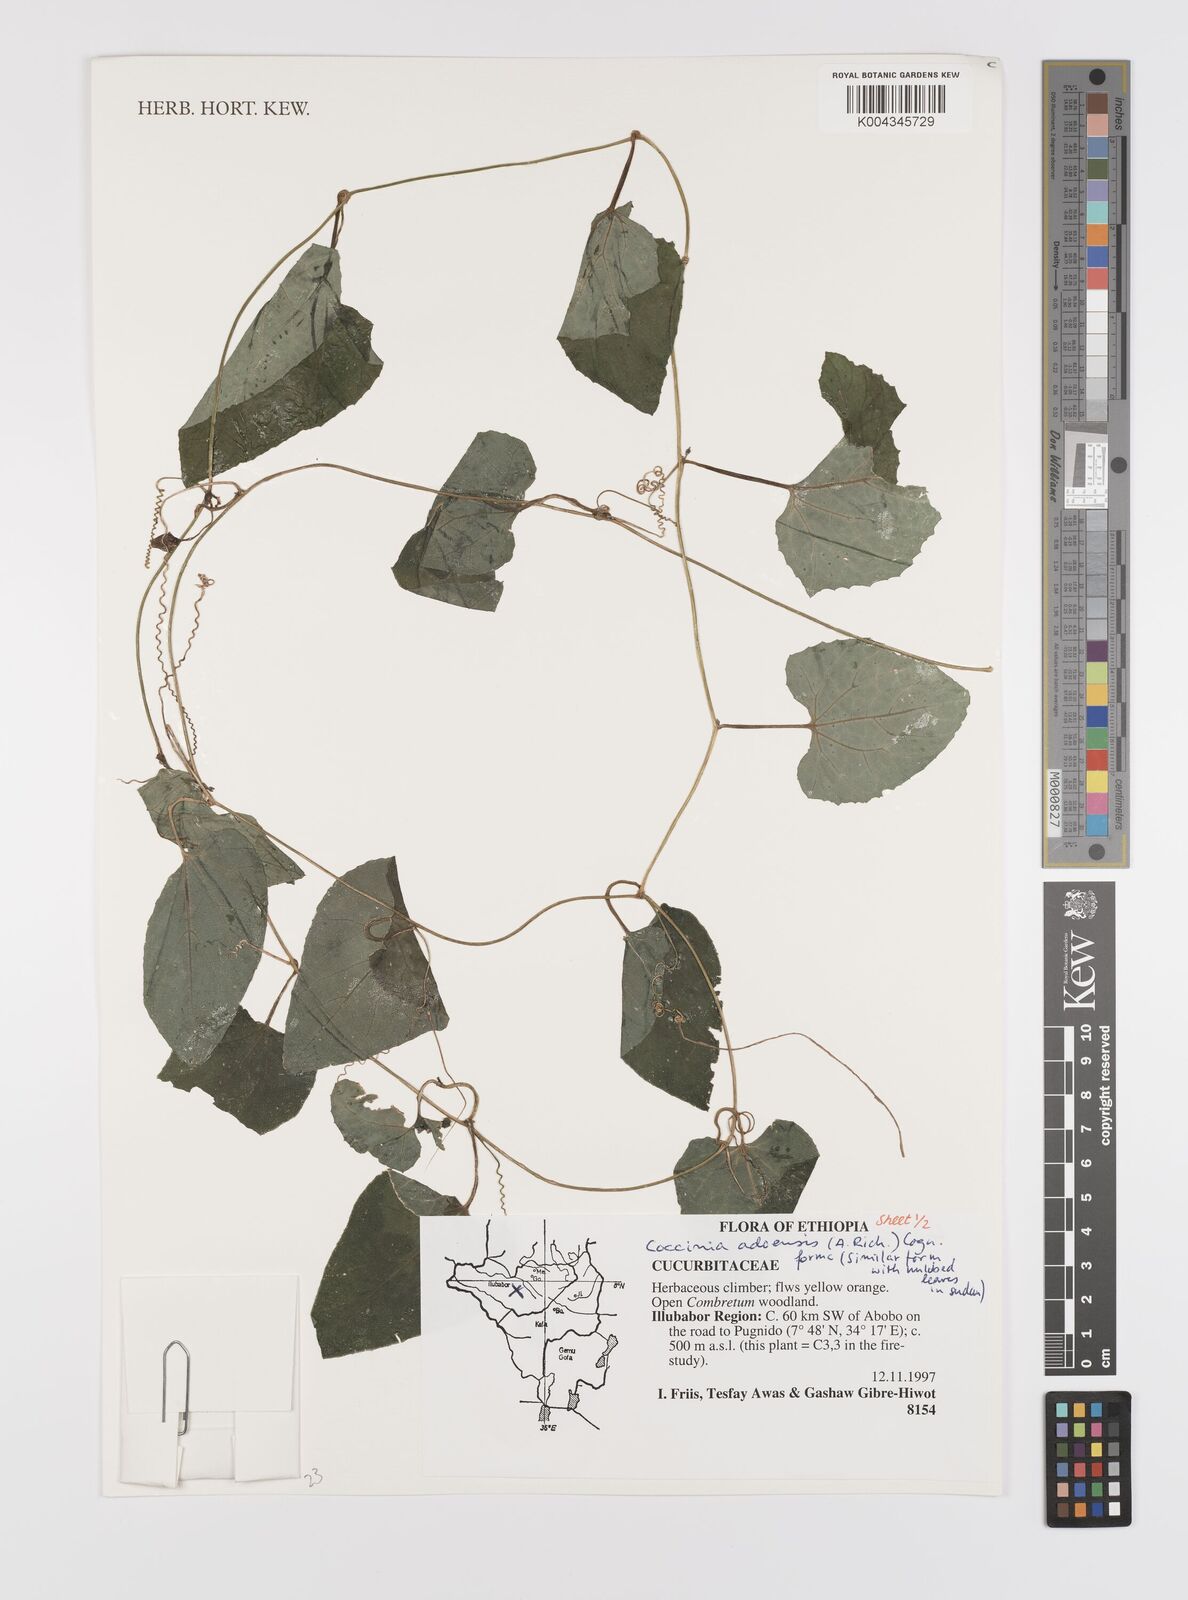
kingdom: Plantae
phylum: Tracheophyta
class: Magnoliopsida
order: Cucurbitales
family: Cucurbitaceae
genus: Coccinia
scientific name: Coccinia adoensis
